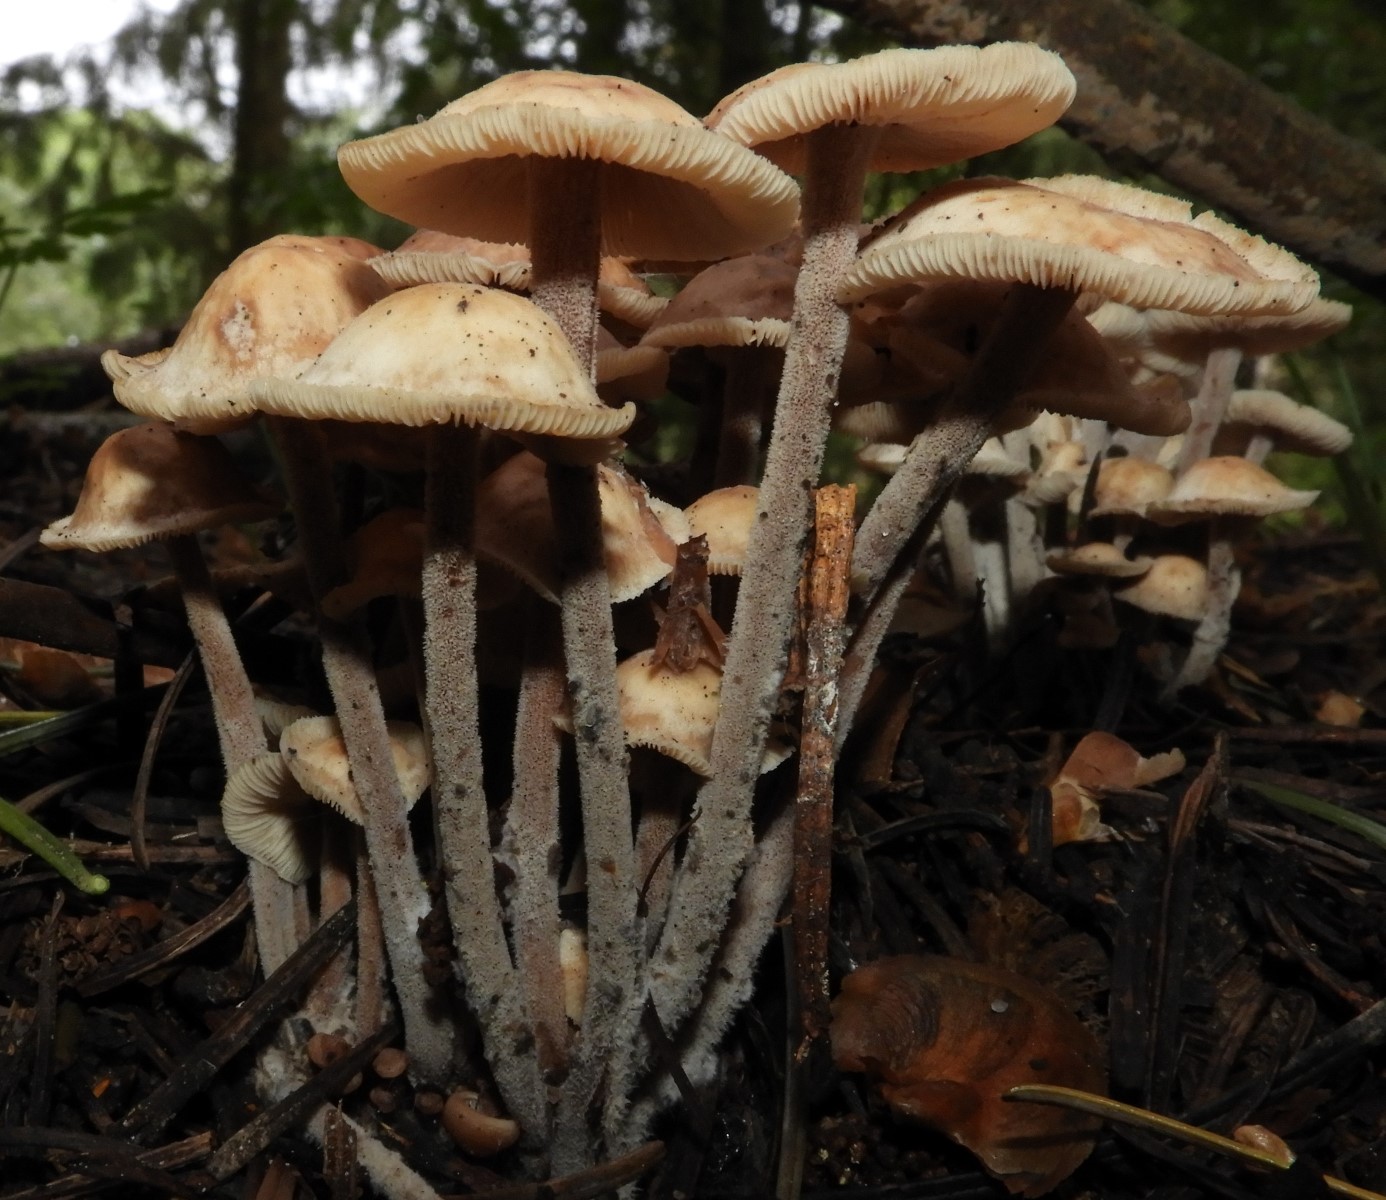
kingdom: Fungi
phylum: Basidiomycota
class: Agaricomycetes
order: Agaricales
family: Omphalotaceae
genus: Collybiopsis
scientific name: Collybiopsis confluens
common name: knippe-fladhat
